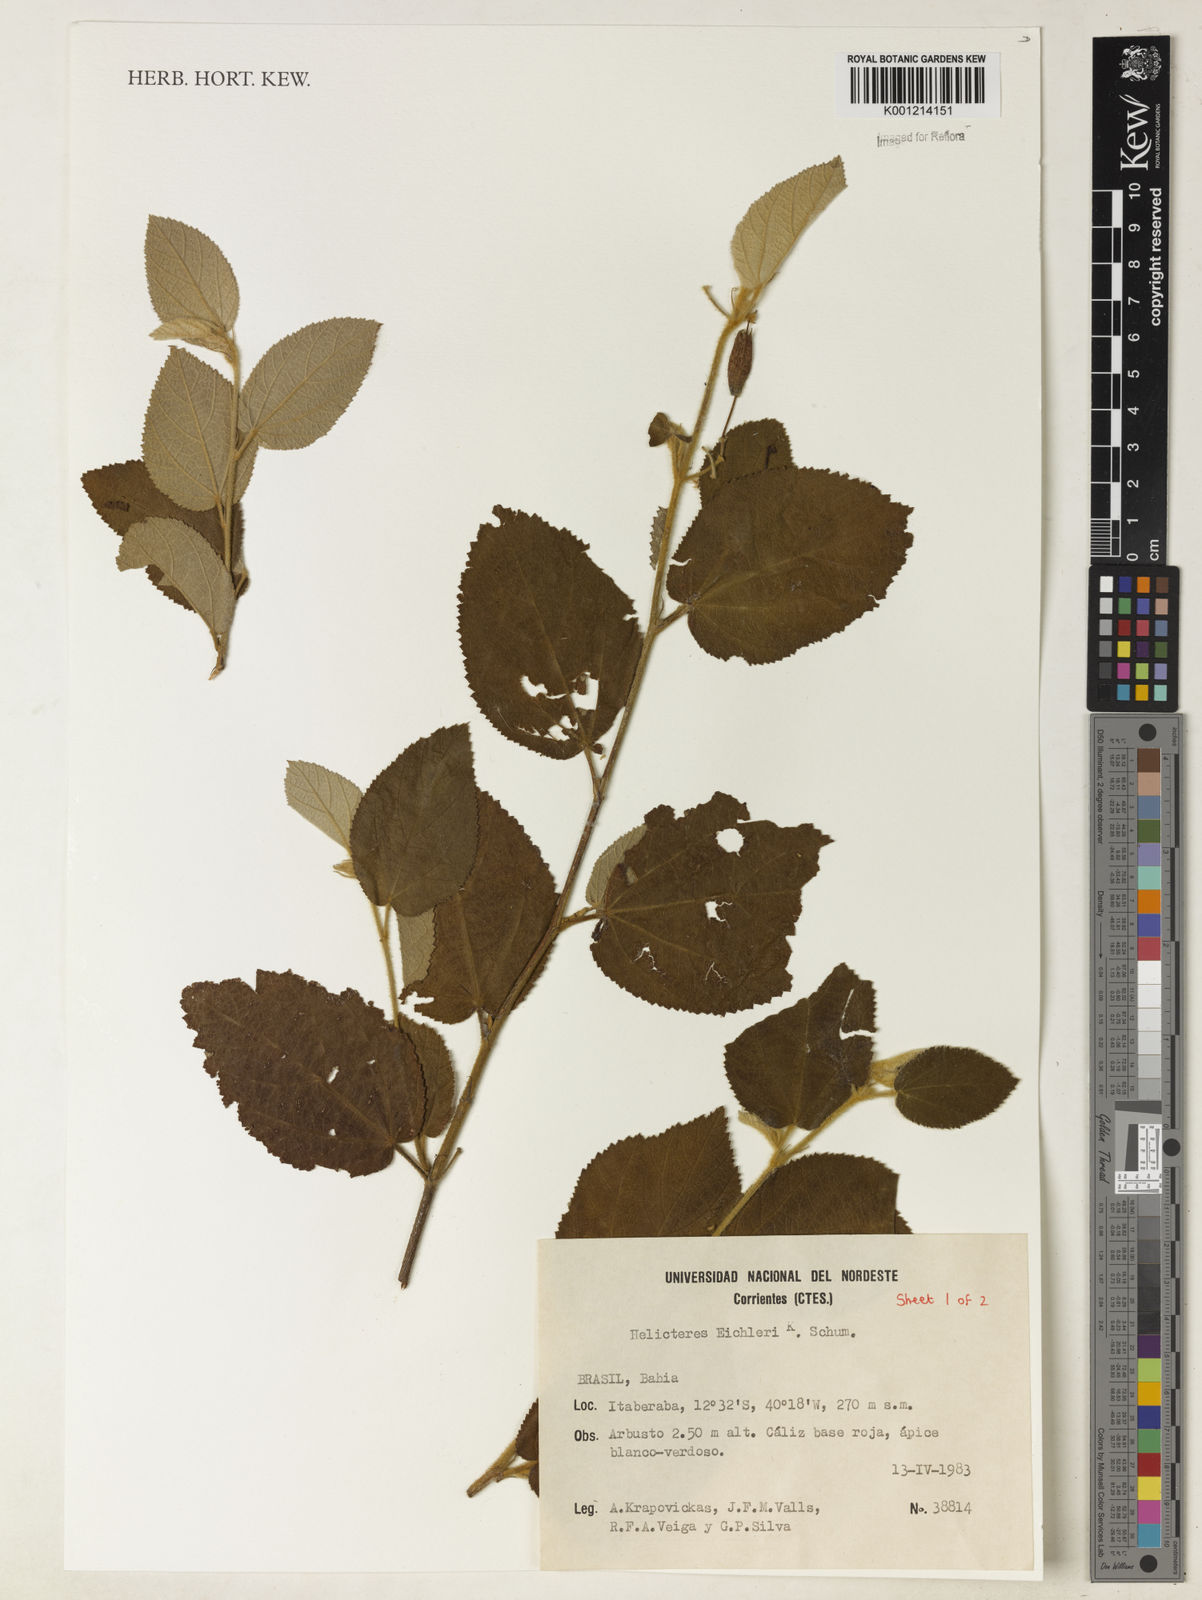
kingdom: Plantae
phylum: Tracheophyta
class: Magnoliopsida
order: Malvales
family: Malvaceae
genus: Helicteres
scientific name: Helicteres eichleri
